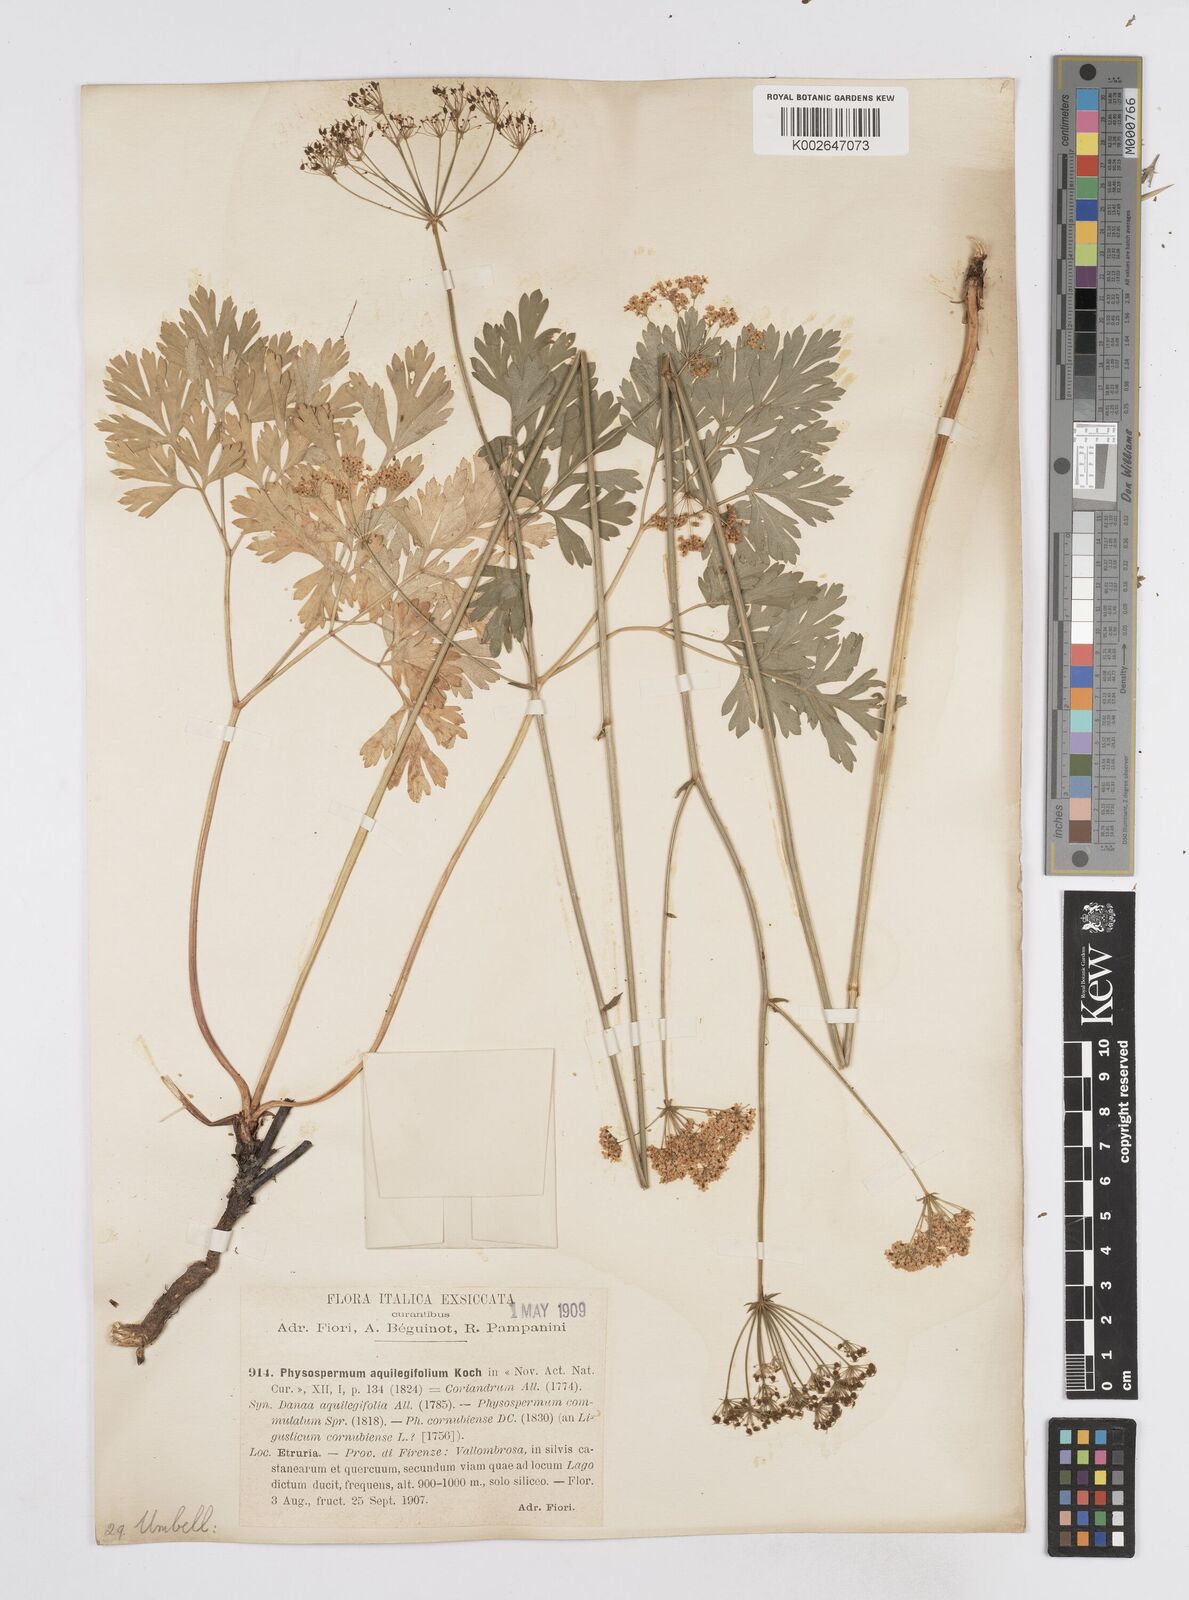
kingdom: Plantae
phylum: Tracheophyta
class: Magnoliopsida
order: Apiales
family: Apiaceae
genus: Physospermum
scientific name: Physospermum cornubiense
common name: Bladderseed
